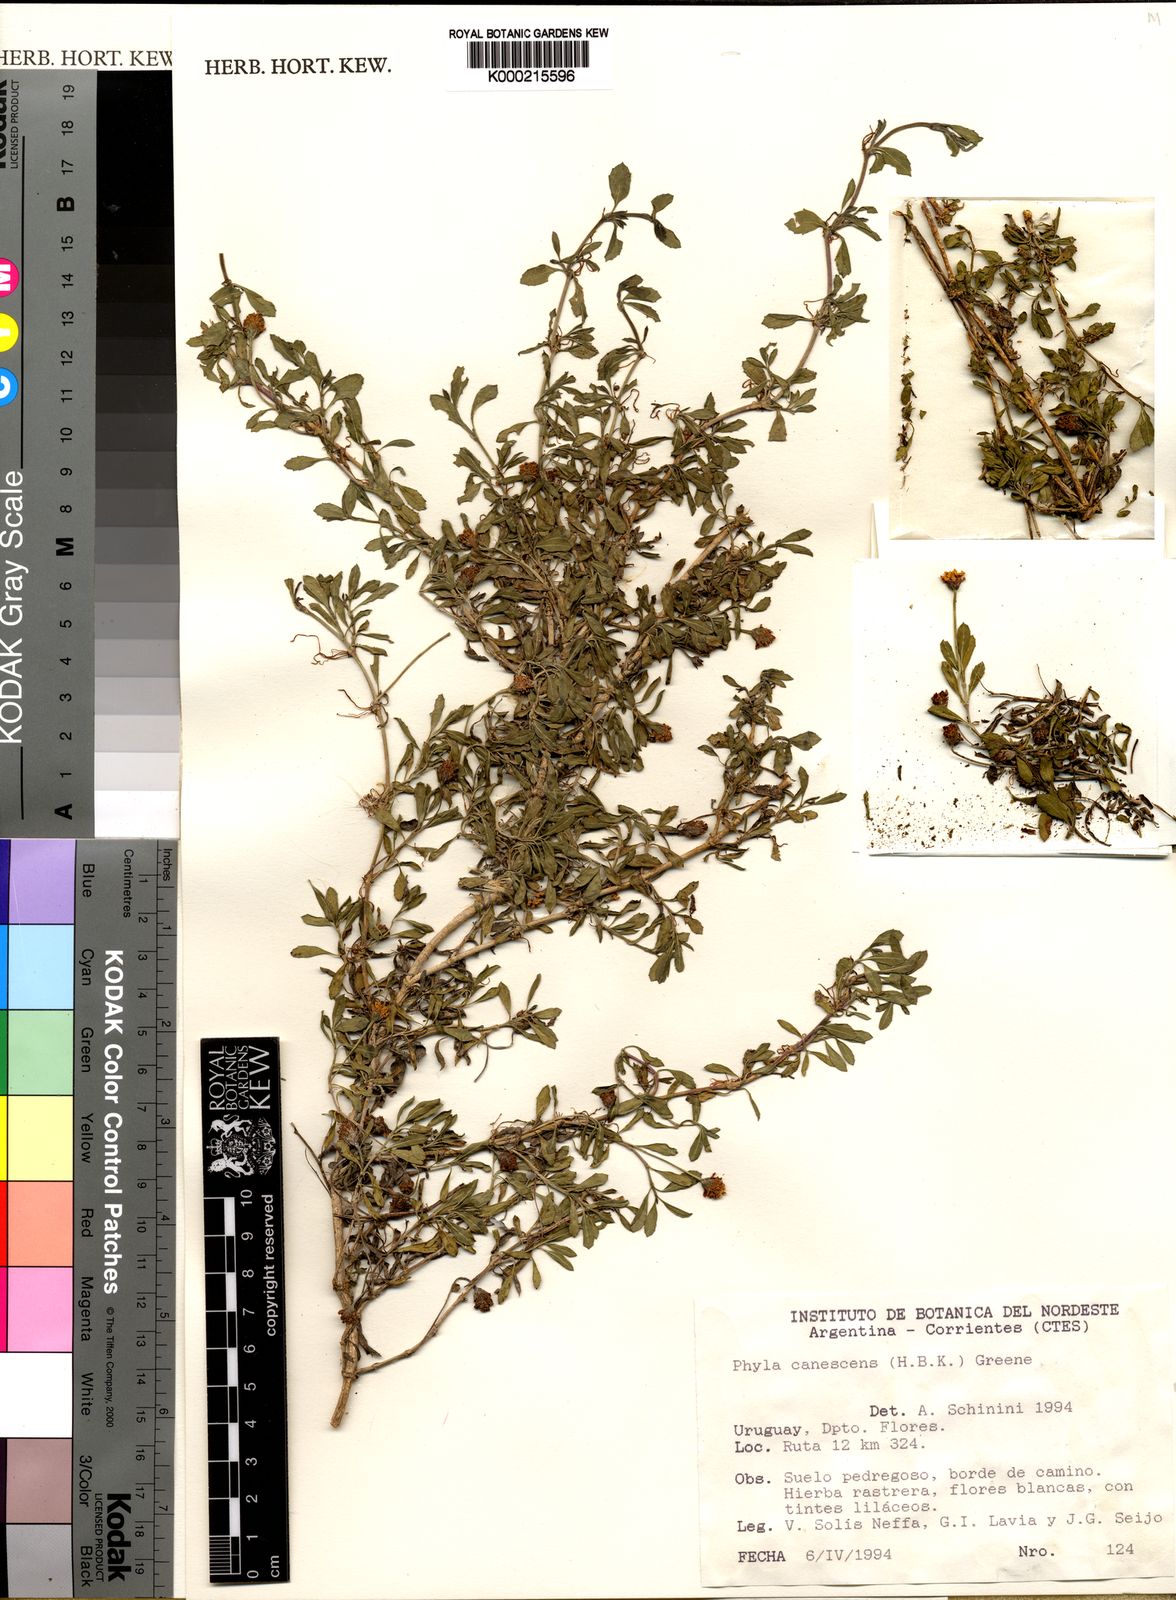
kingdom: Plantae
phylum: Tracheophyta
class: Magnoliopsida
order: Lamiales
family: Verbenaceae
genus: Phyla
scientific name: Phyla nodiflora
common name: Frogfruit
